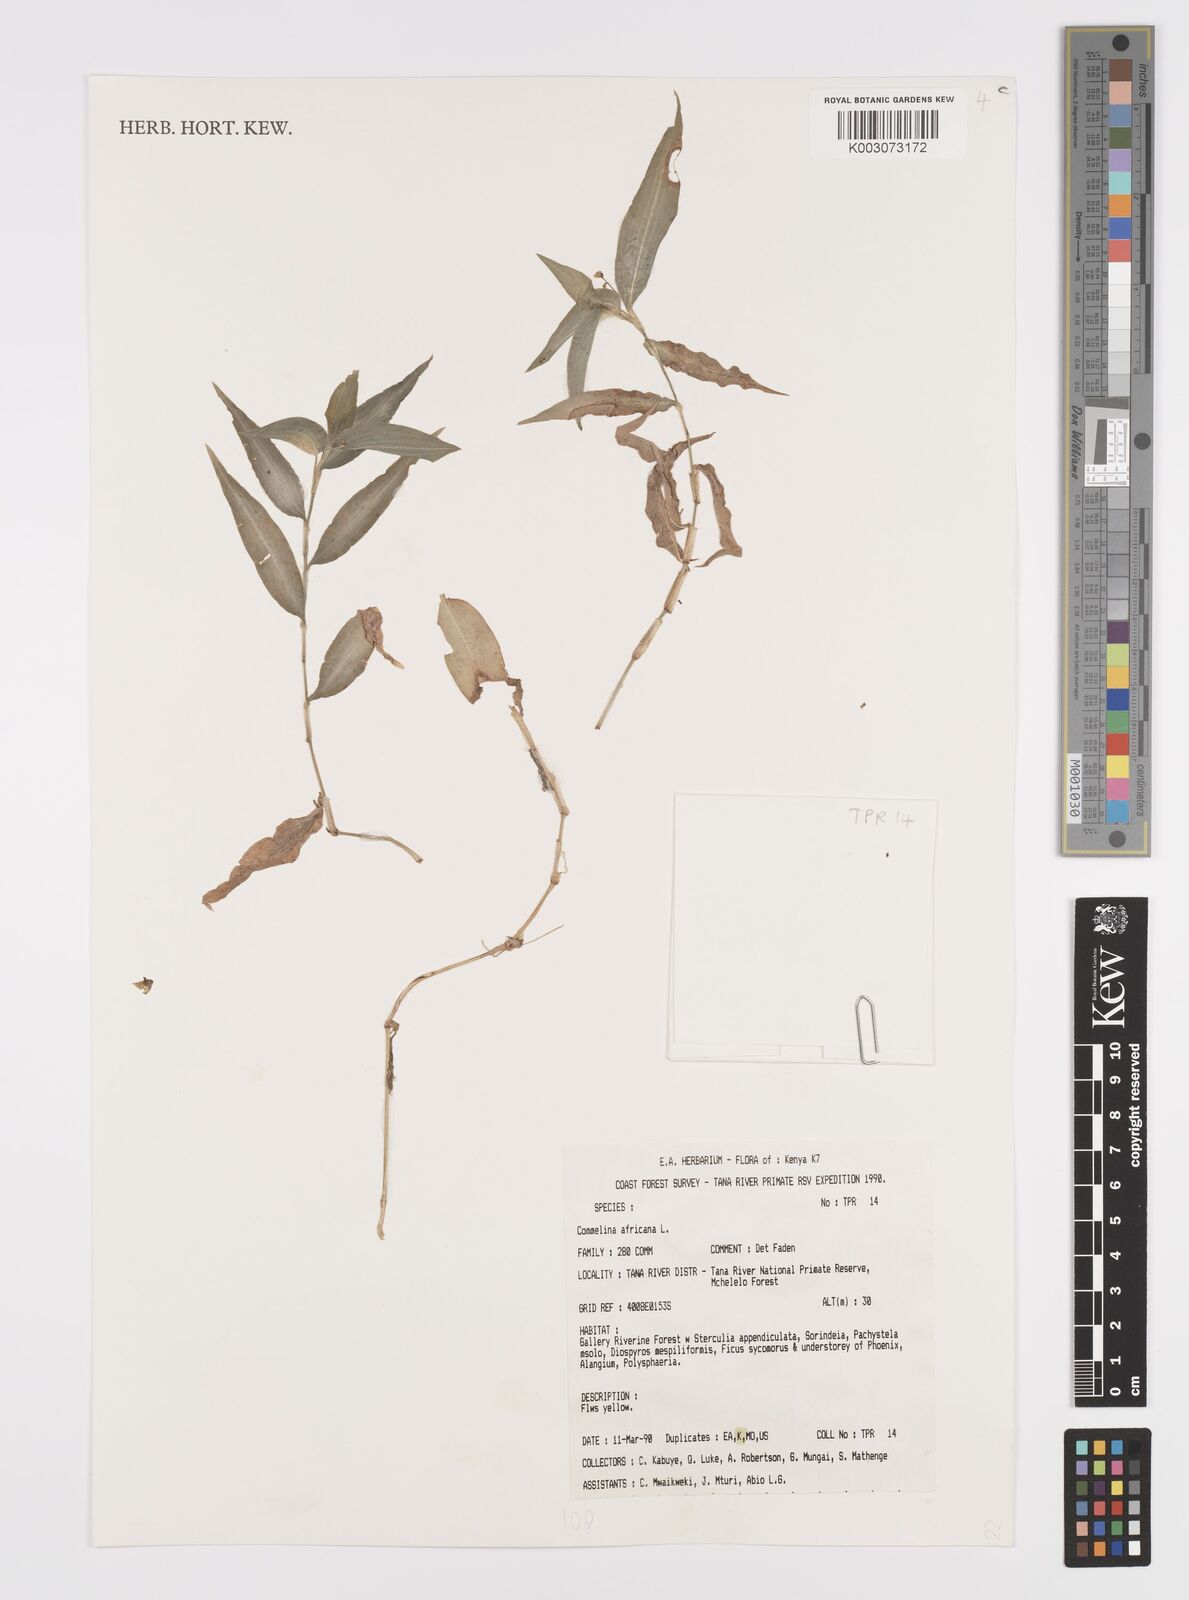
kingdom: Plantae
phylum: Tracheophyta
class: Liliopsida
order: Commelinales
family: Commelinaceae
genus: Commelina
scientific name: Commelina africana
